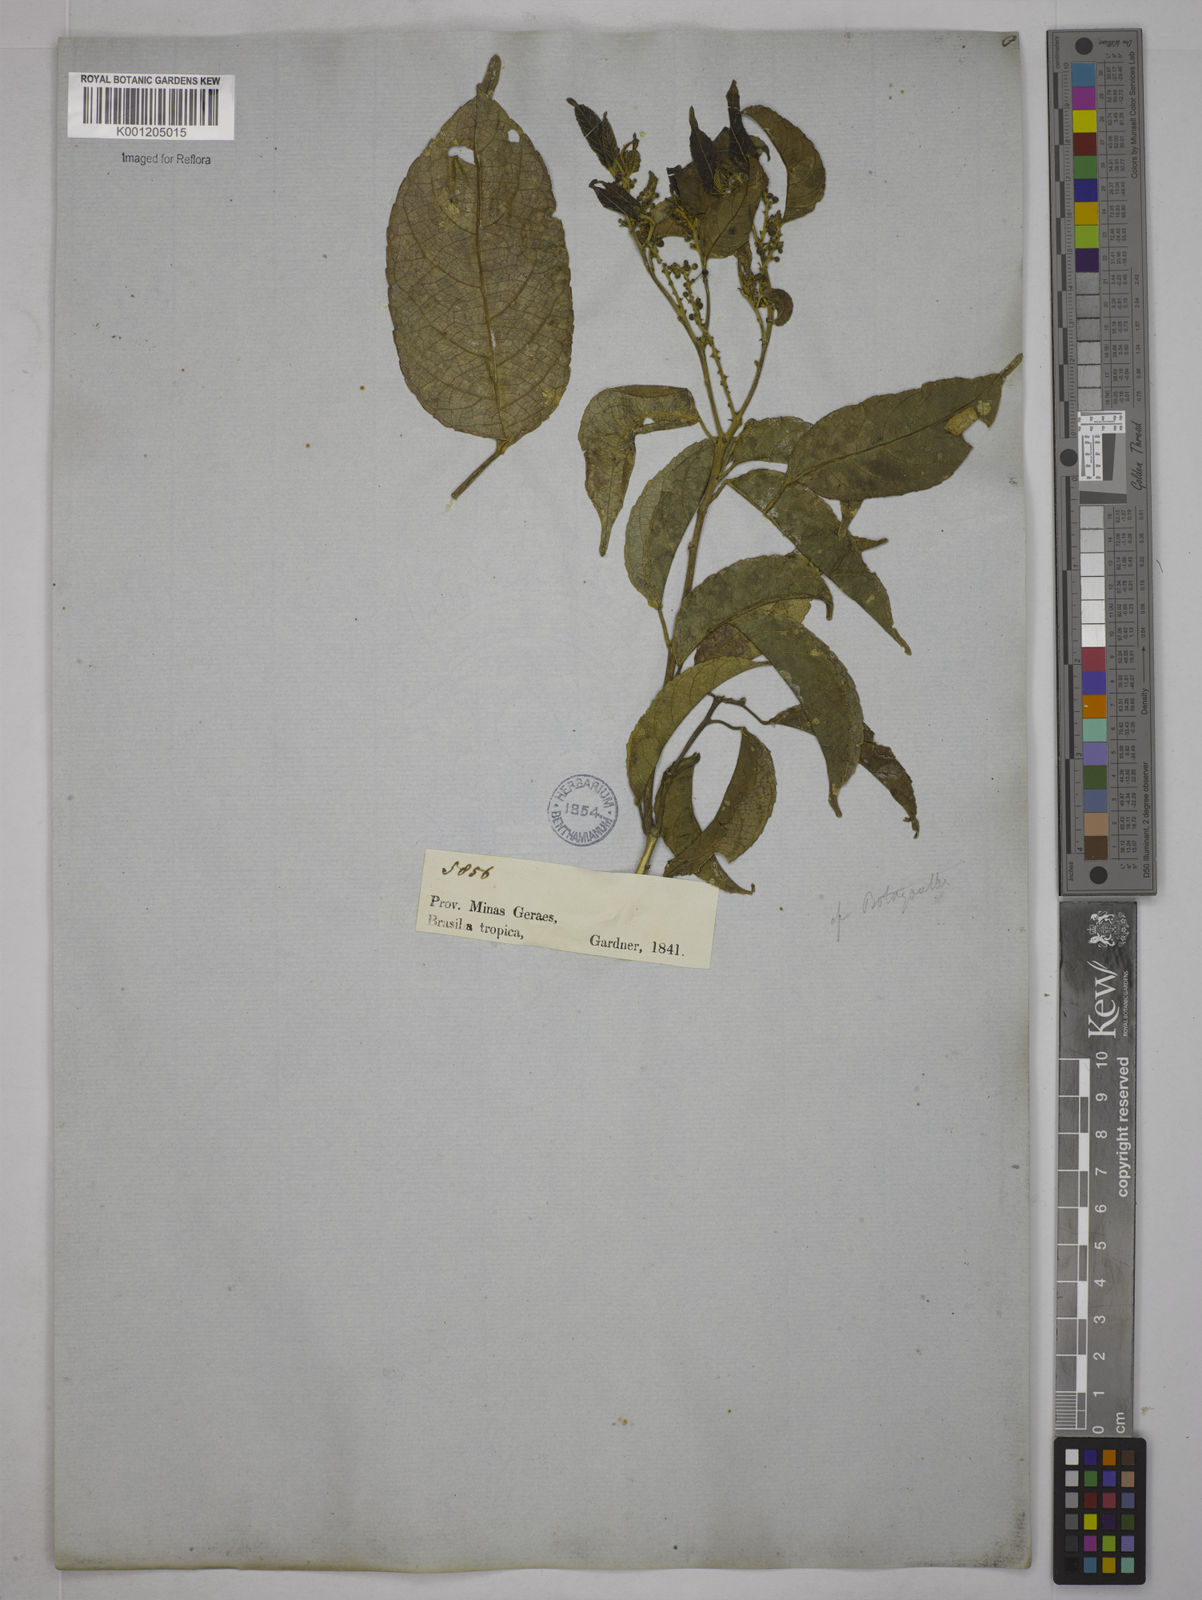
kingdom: Plantae
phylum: Tracheophyta
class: Magnoliopsida
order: Malpighiales
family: Euphorbiaceae
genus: Plukenetia
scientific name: Plukenetia serrata
